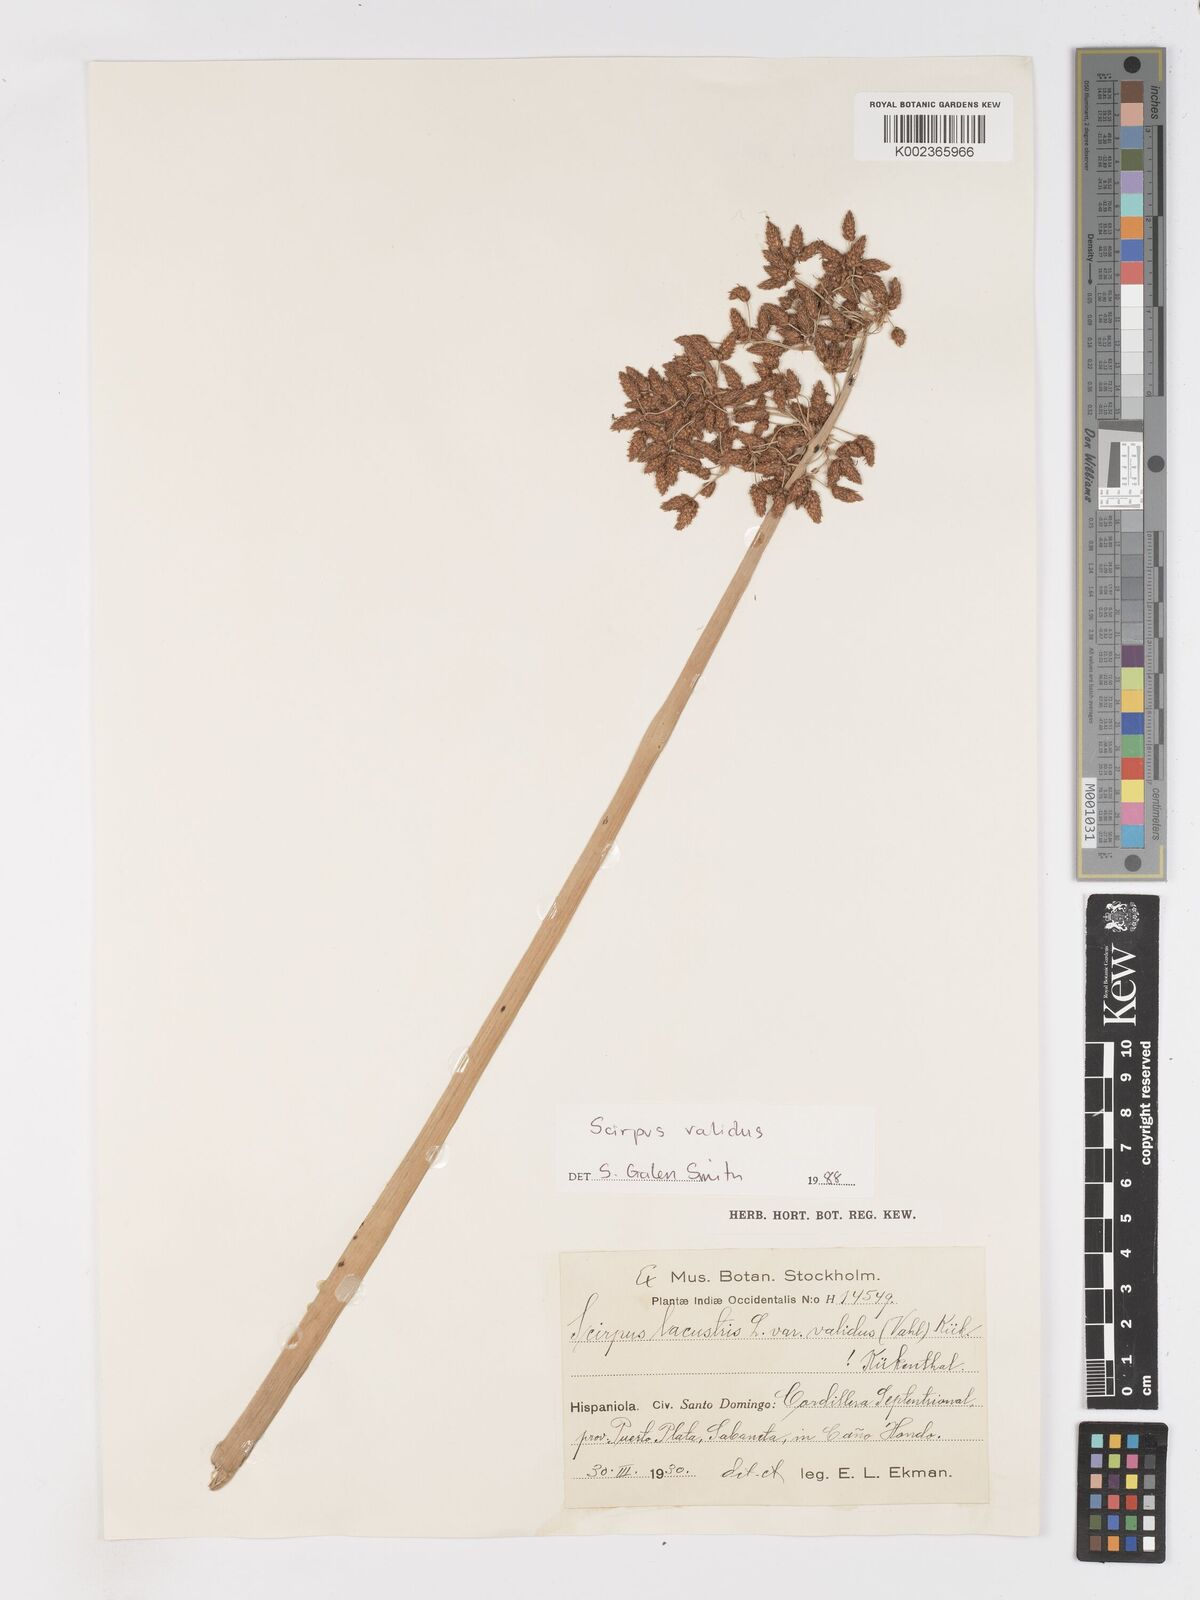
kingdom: Plantae
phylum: Tracheophyta
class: Liliopsida
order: Poales
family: Cyperaceae
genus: Schoenoplectus
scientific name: Schoenoplectus lacustris
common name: Common club-rush
